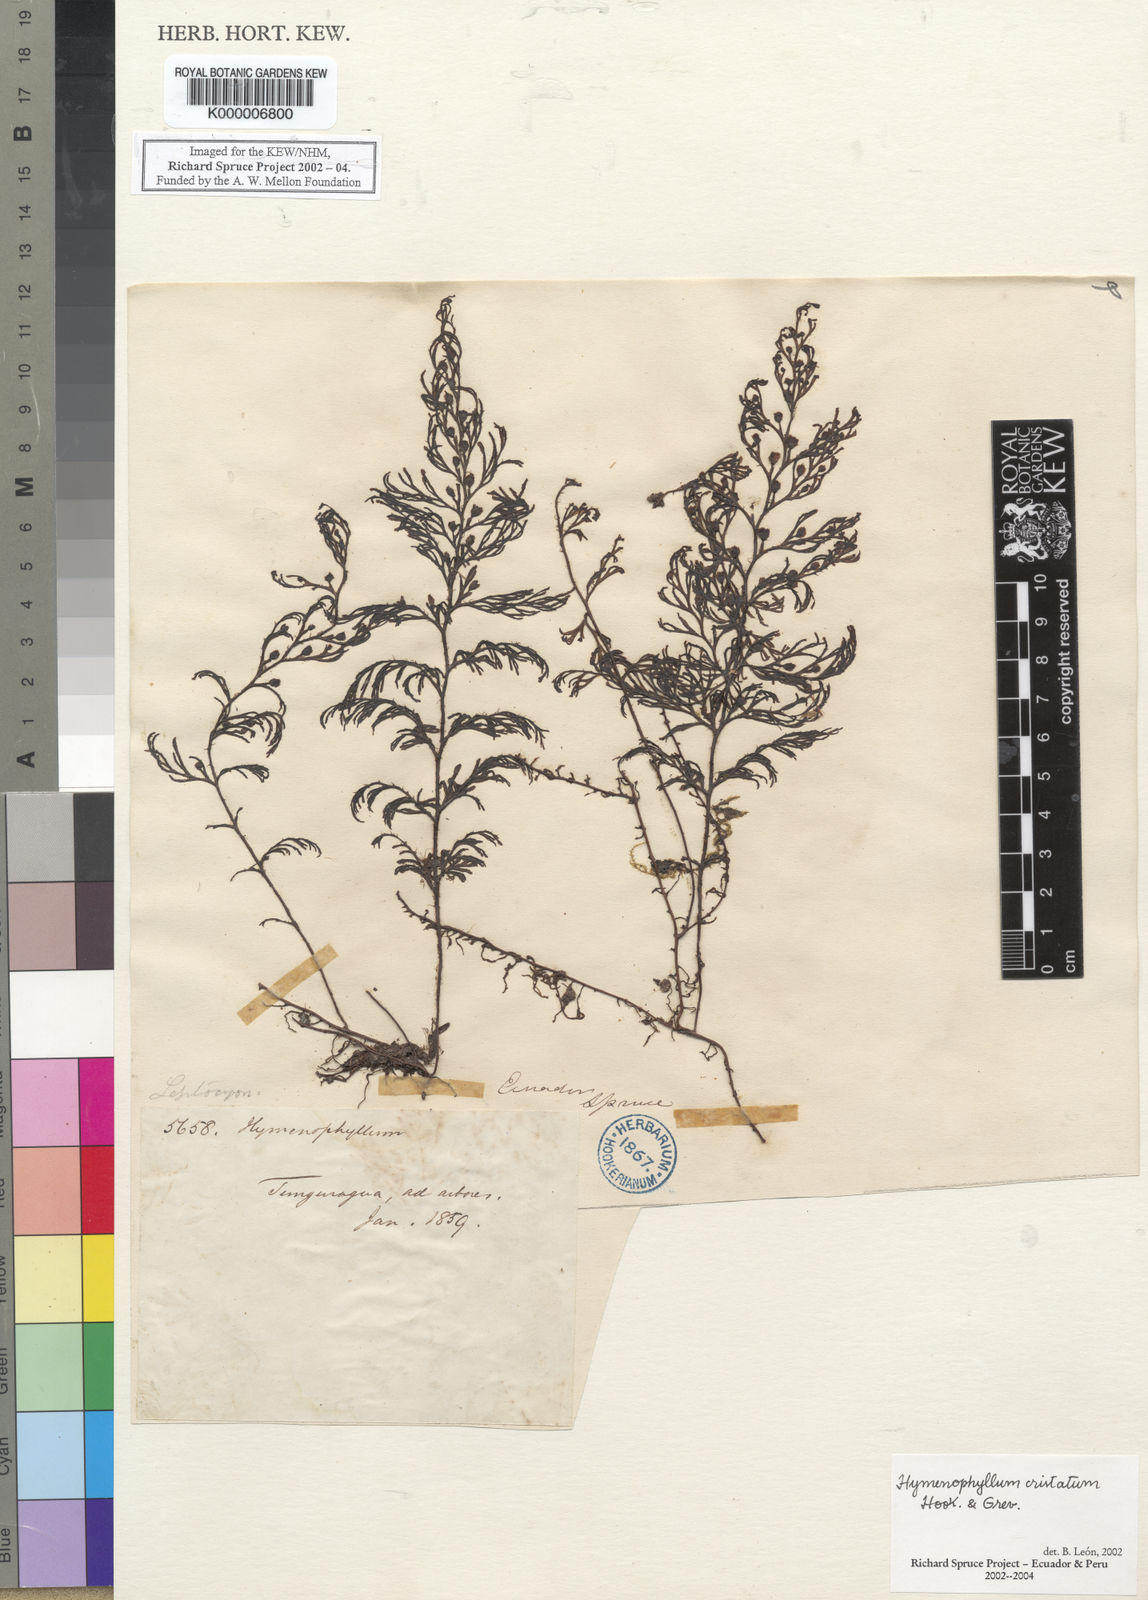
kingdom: Plantae
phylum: Tracheophyta
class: Polypodiopsida
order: Hymenophyllales
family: Hymenophyllaceae
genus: Hymenophyllum
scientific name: Hymenophyllum cristatum
